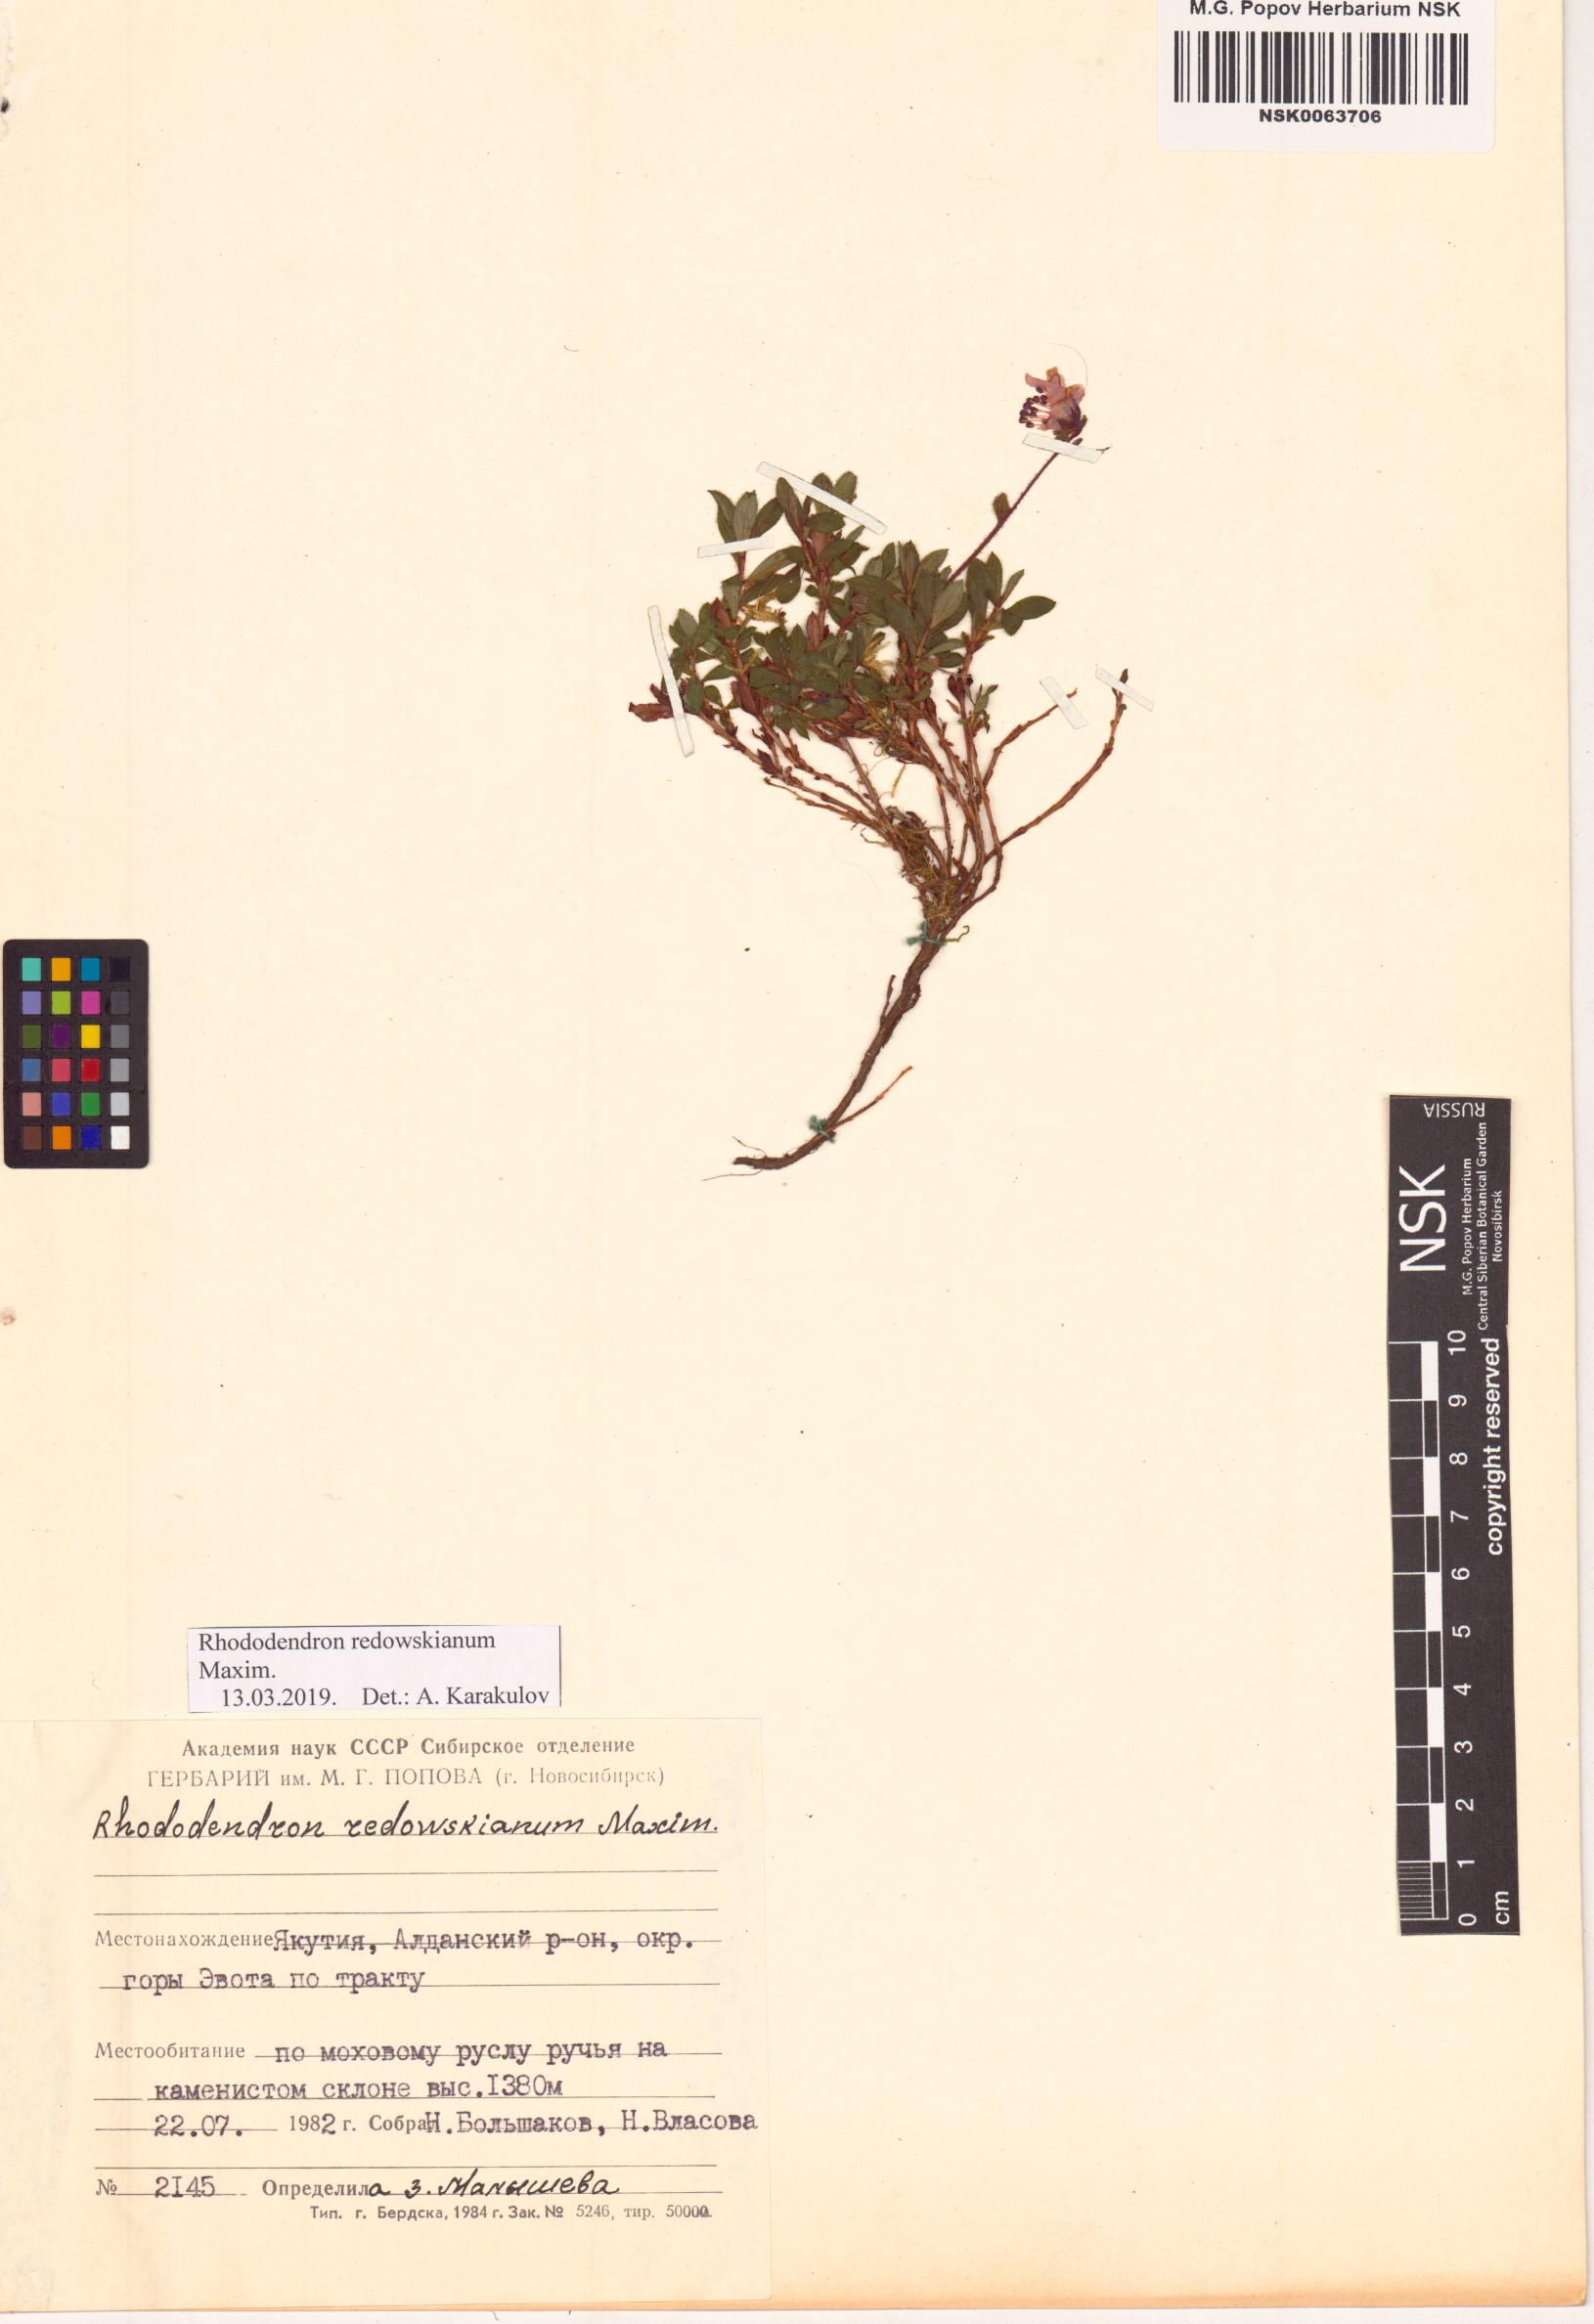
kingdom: Plantae
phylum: Tracheophyta
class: Magnoliopsida
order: Ericales
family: Ericaceae
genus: Rhododendron
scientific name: Rhododendron redowskianum
